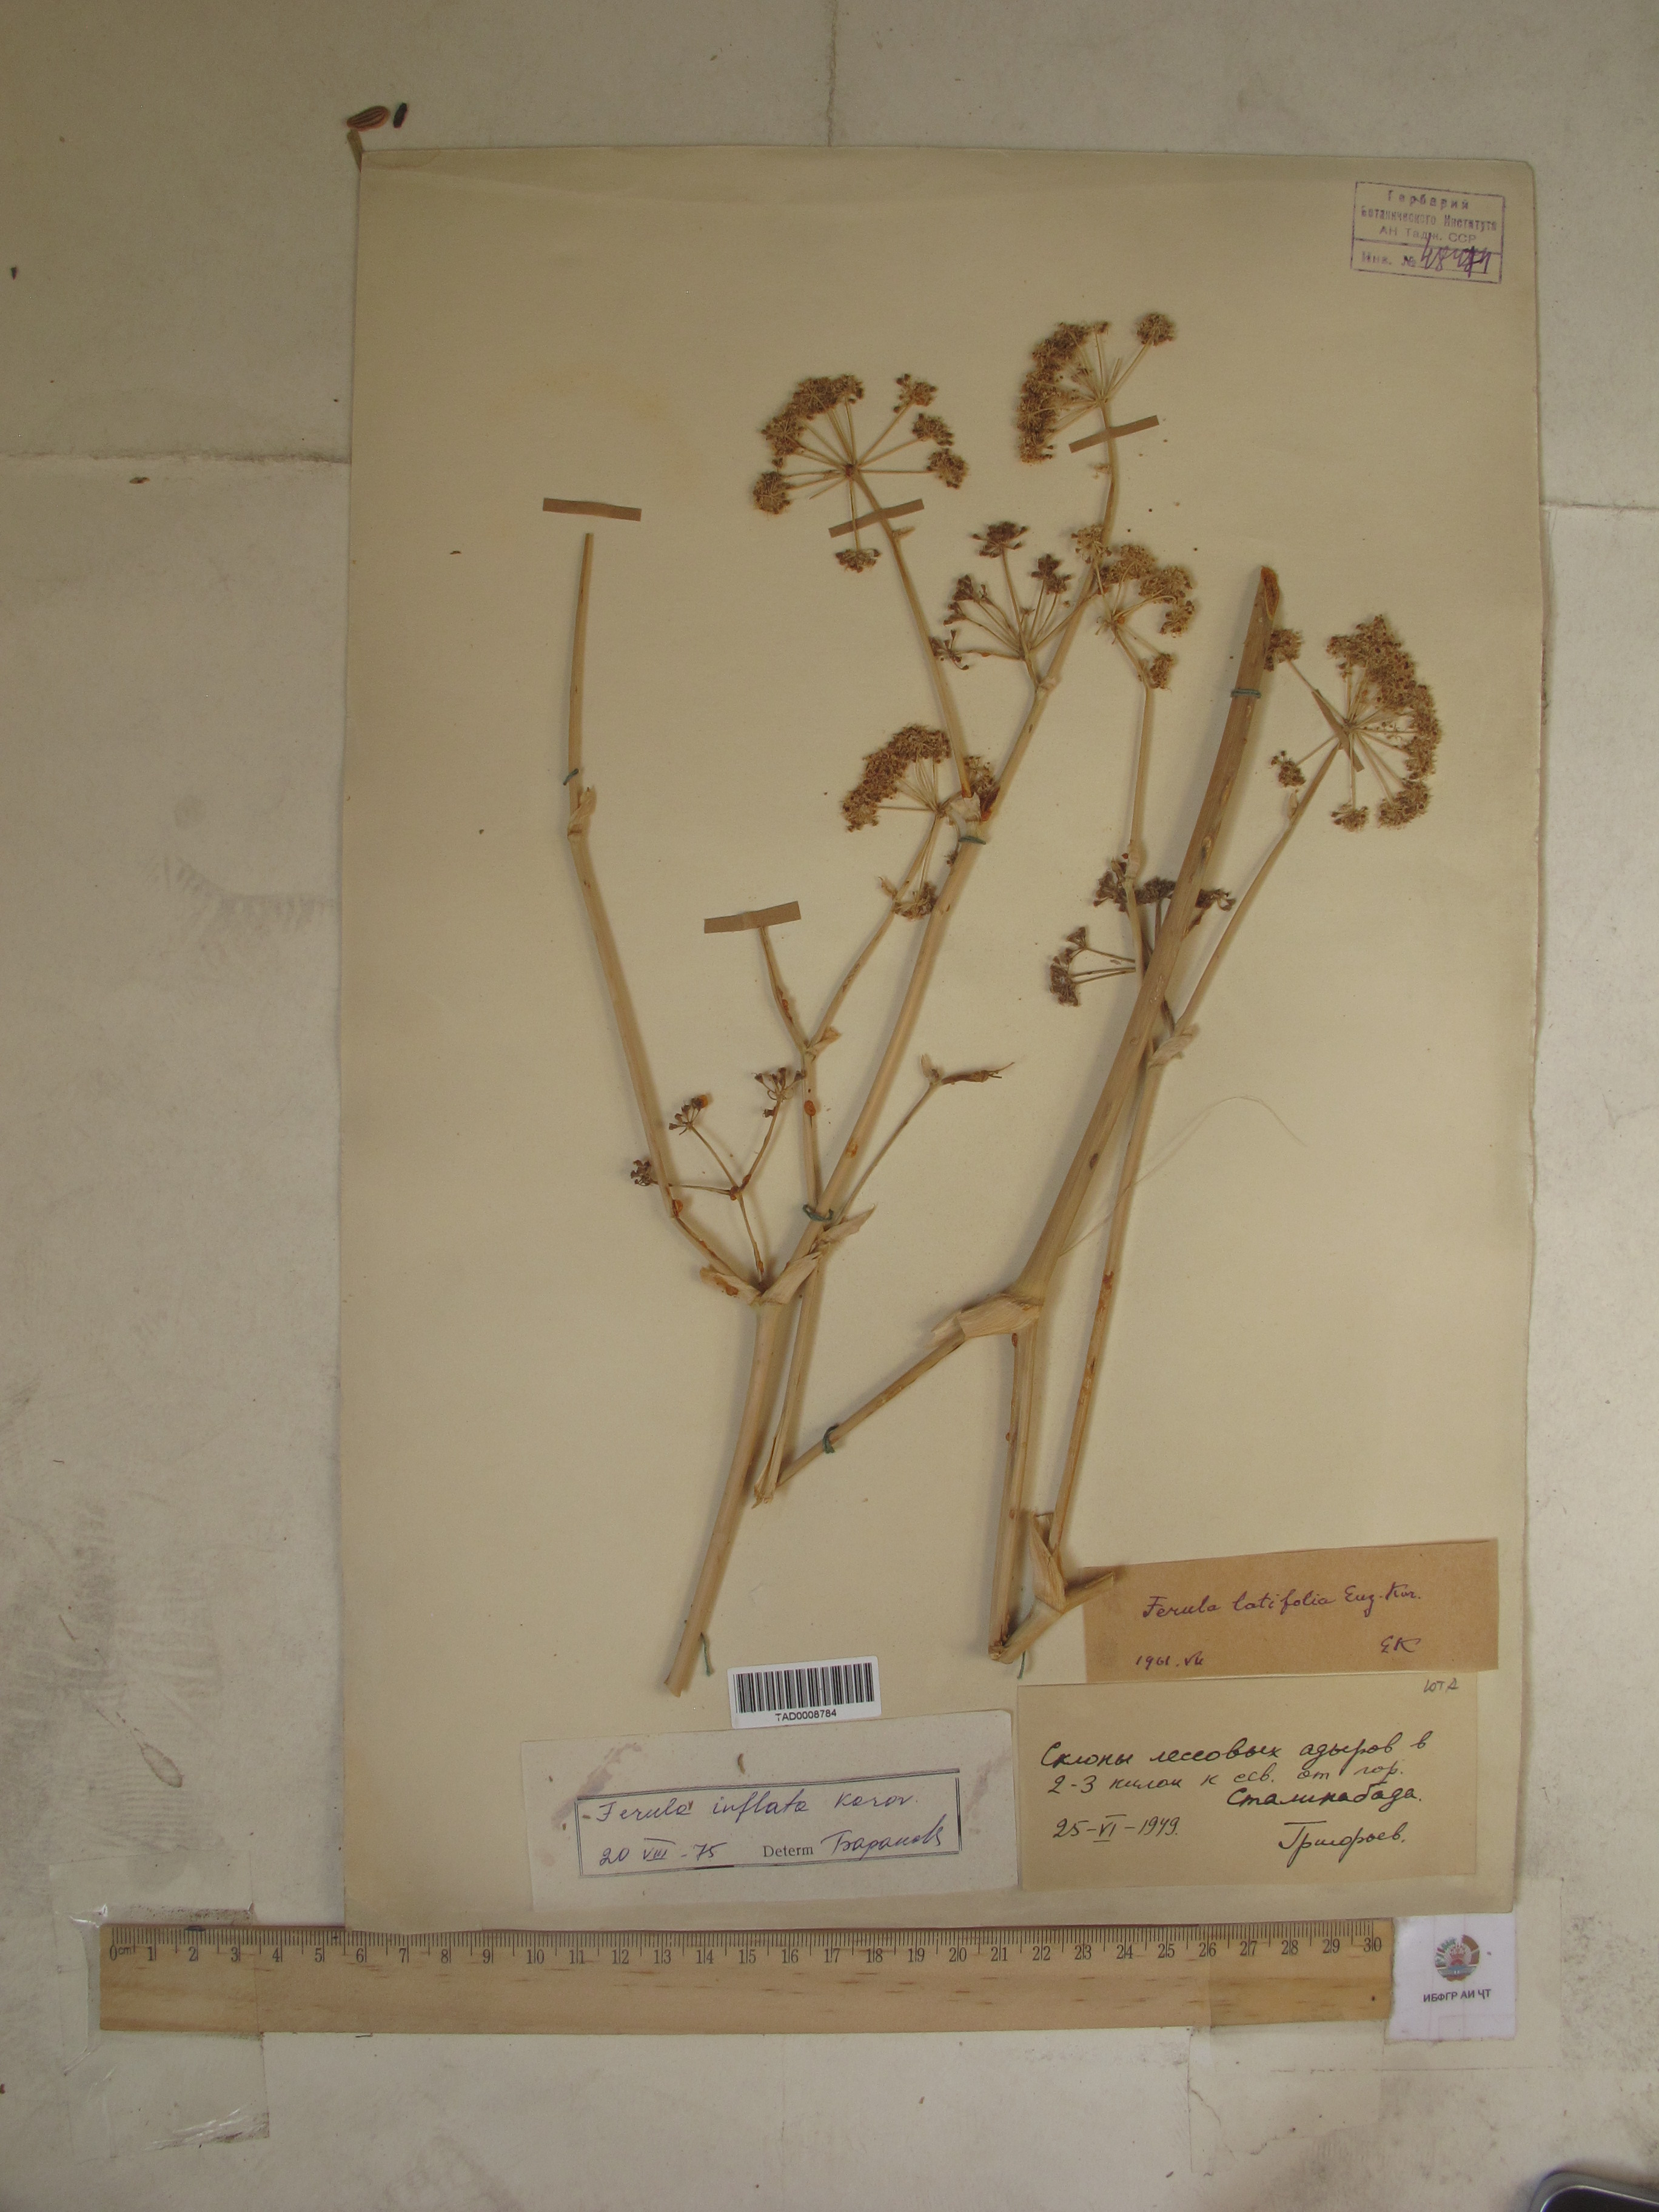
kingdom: Plantae
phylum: Tracheophyta
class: Magnoliopsida
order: Apiales
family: Apiaceae
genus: Ferula
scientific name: Ferula gigantea
